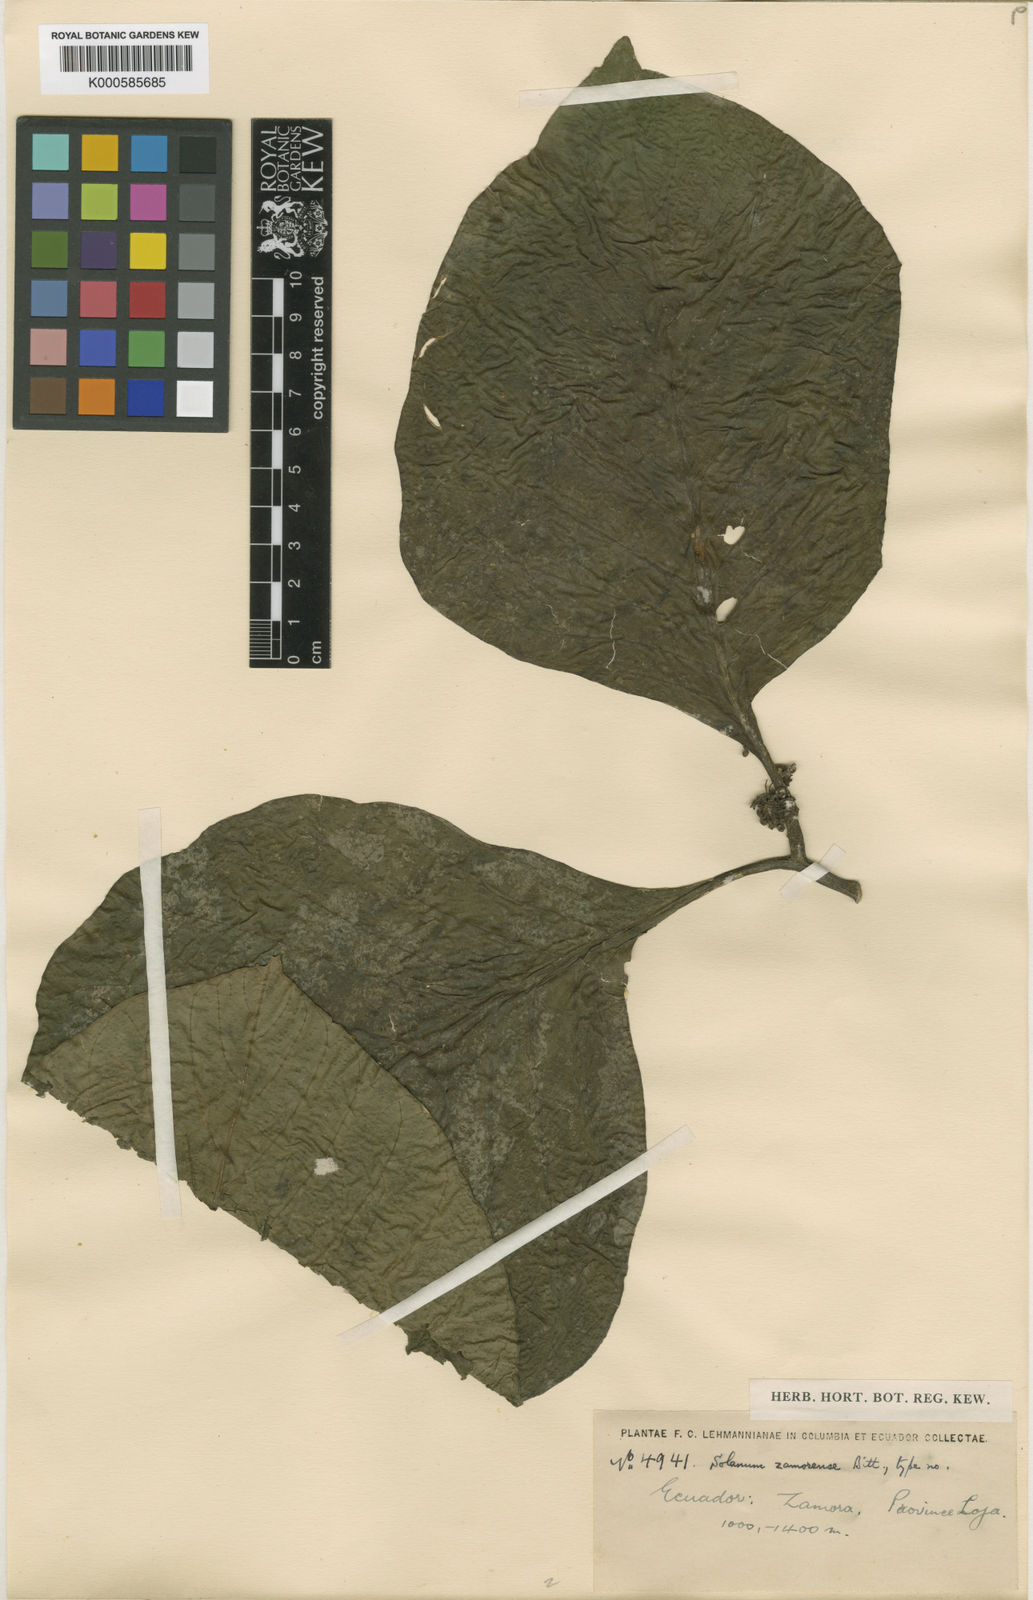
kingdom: Plantae
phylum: Tracheophyta
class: Magnoliopsida
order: Solanales
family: Solanaceae
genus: Solanum
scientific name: Solanum robustifrons
